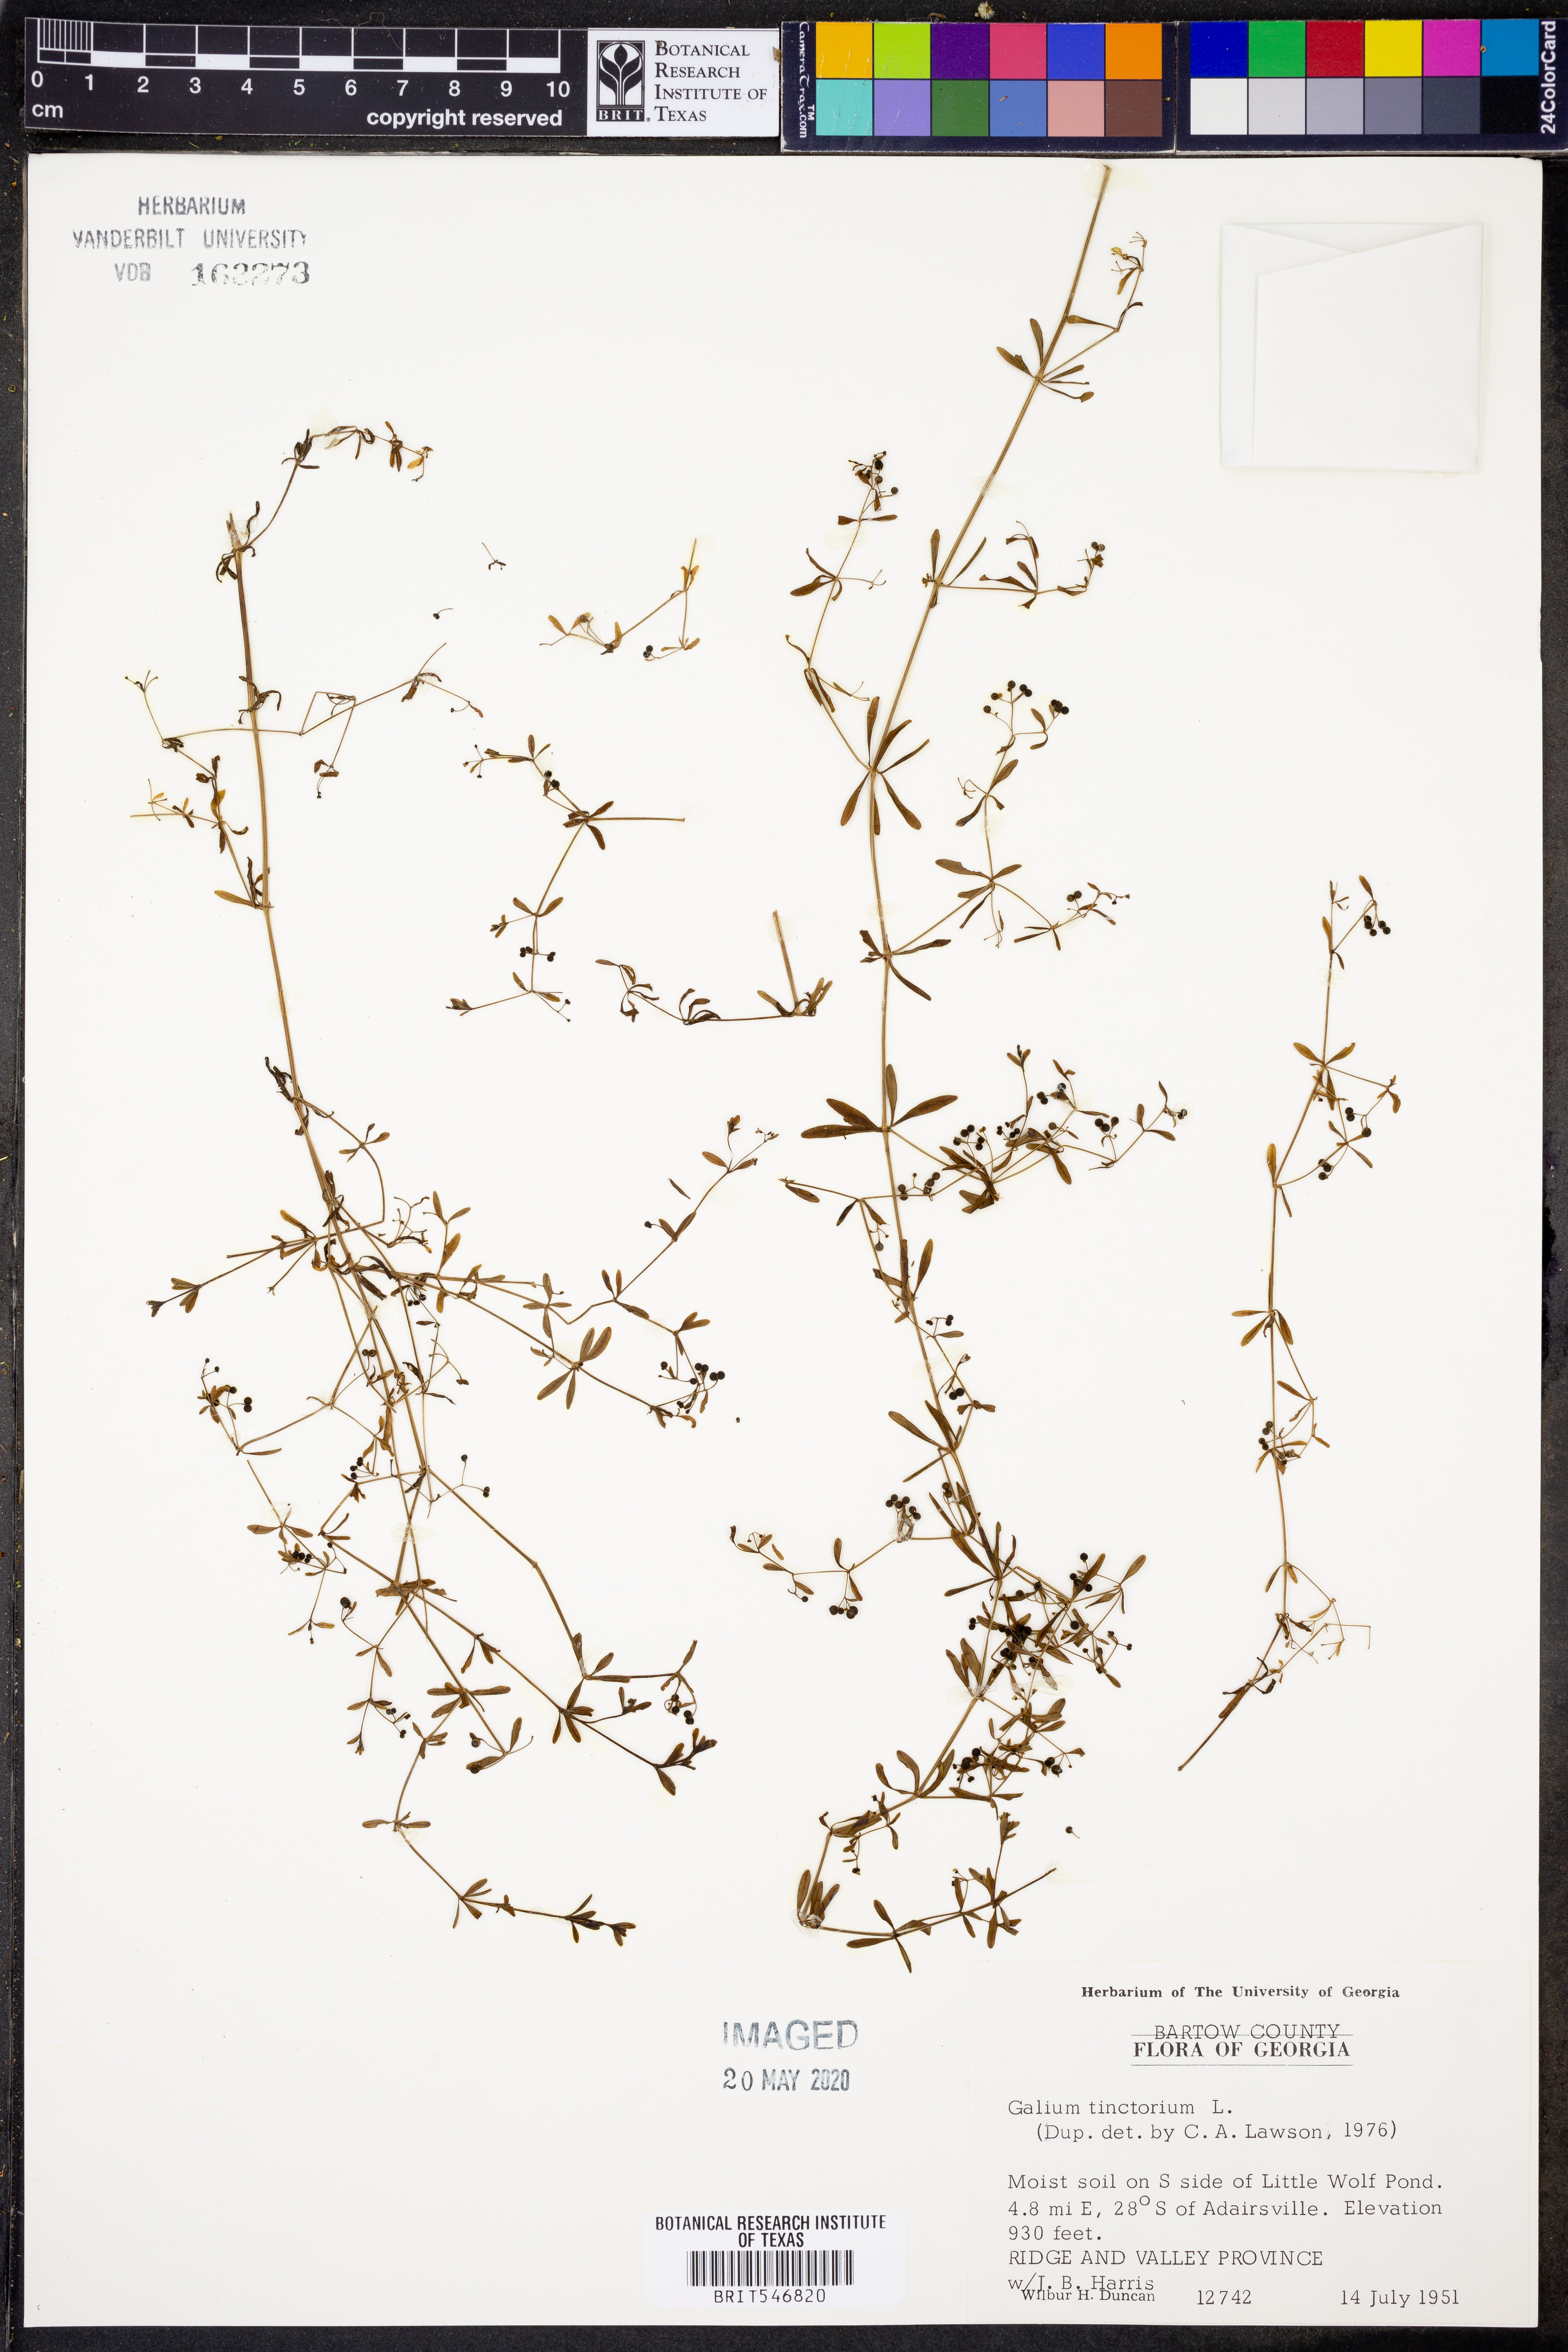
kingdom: Plantae
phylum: Tracheophyta
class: Magnoliopsida
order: Gentianales
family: Rubiaceae
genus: Asperula
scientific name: Asperula tinctoria
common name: Dyer's woodruff
